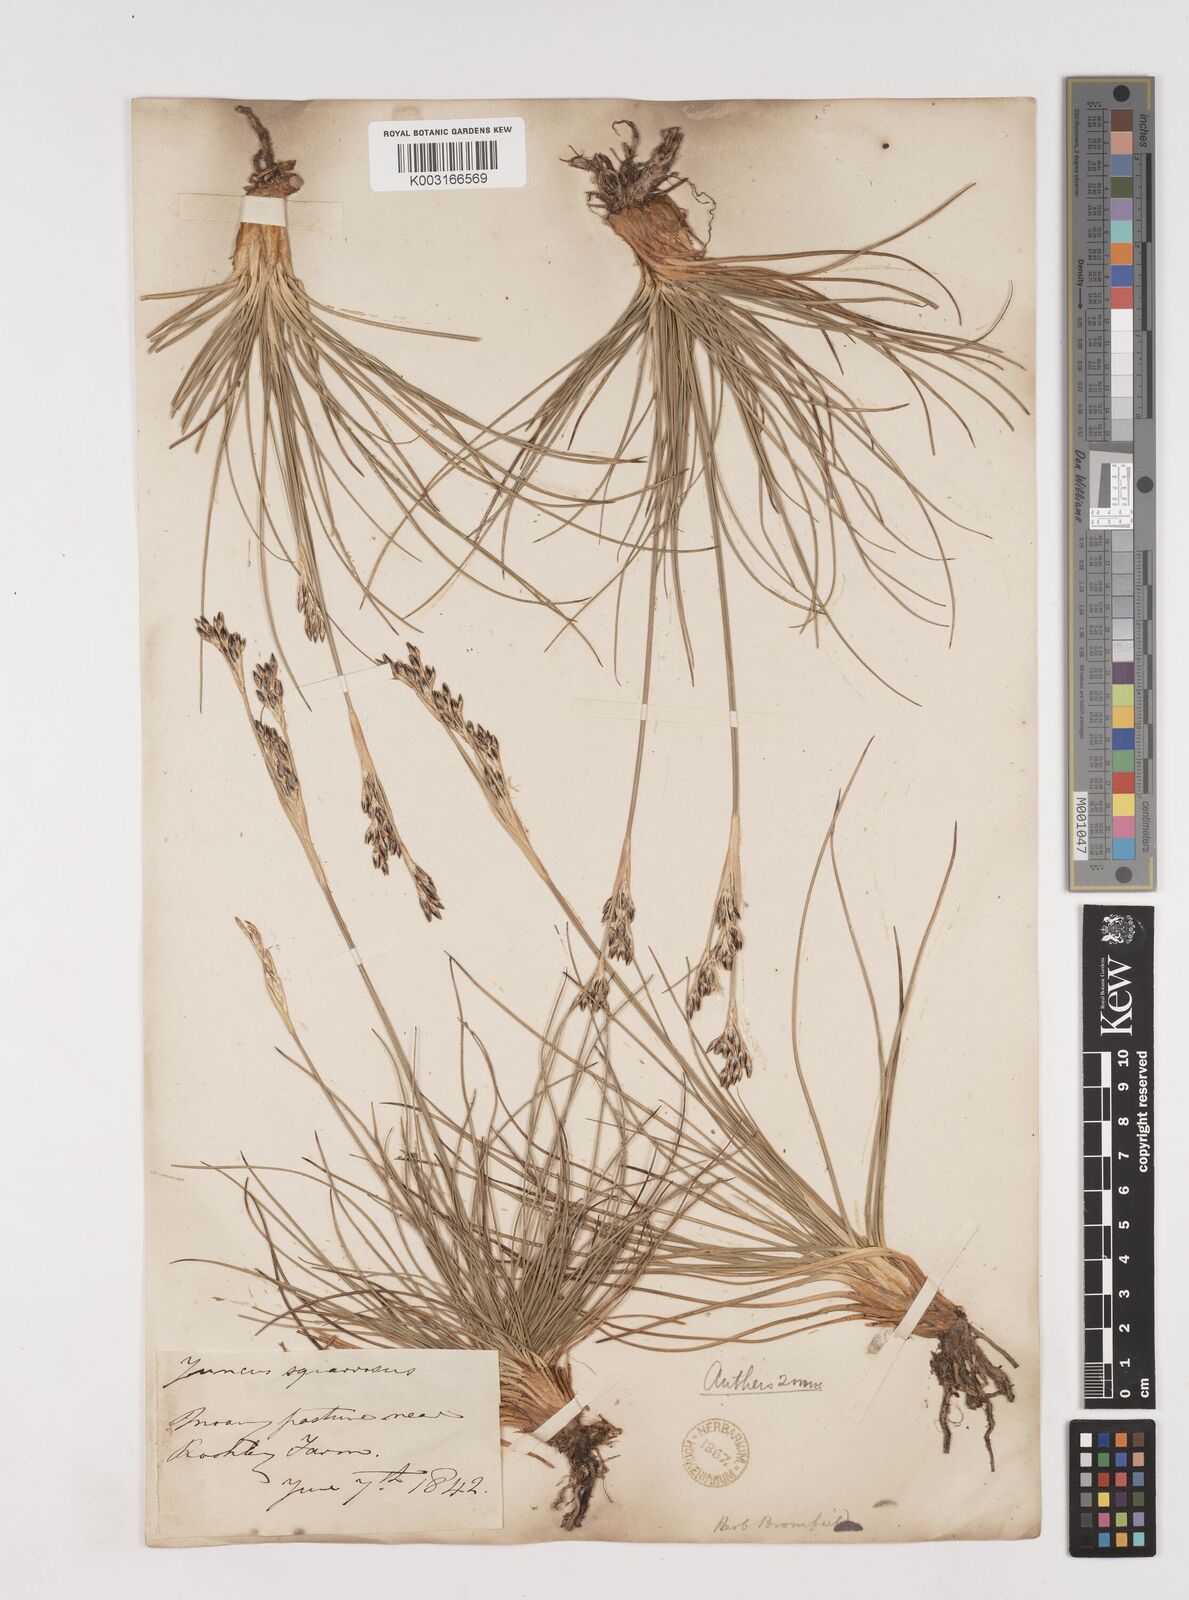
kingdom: Plantae
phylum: Tracheophyta
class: Liliopsida
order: Poales
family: Juncaceae
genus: Juncus
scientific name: Juncus squarrosus
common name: Heath rush
